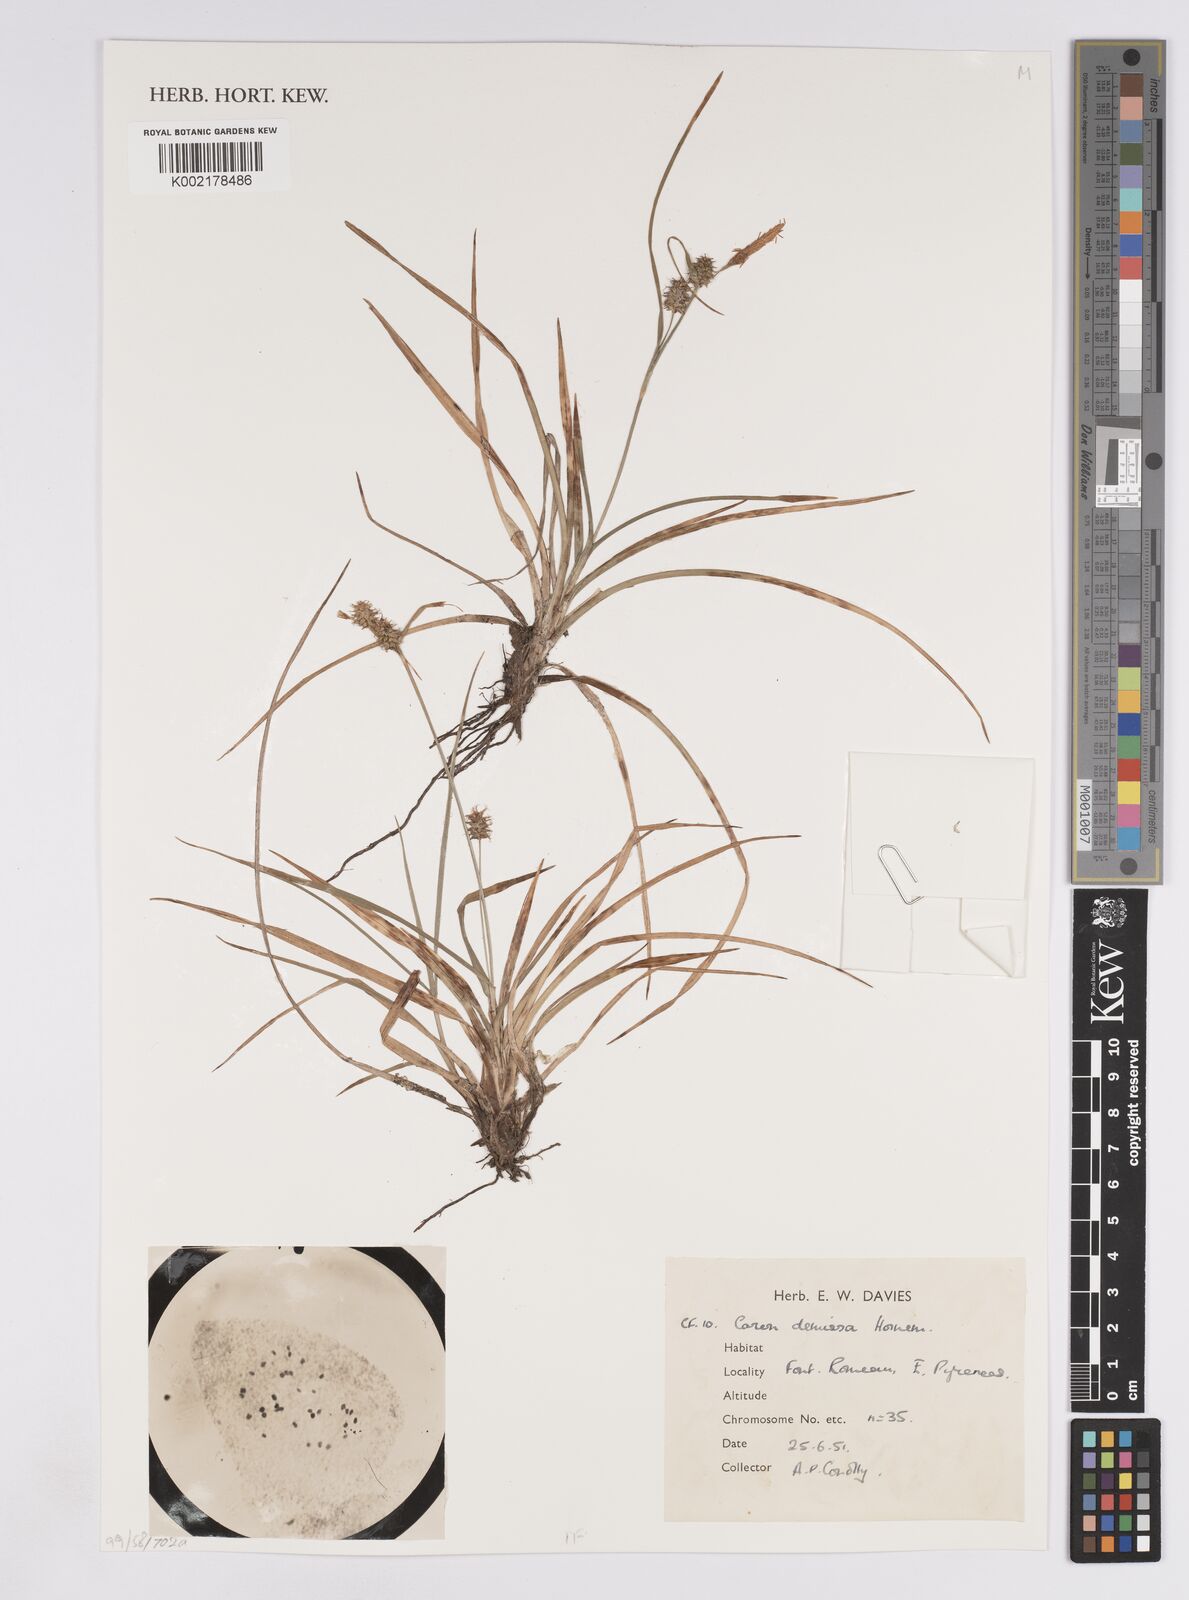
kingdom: Plantae
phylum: Tracheophyta
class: Liliopsida
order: Poales
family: Cyperaceae
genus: Carex
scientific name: Carex demissa
